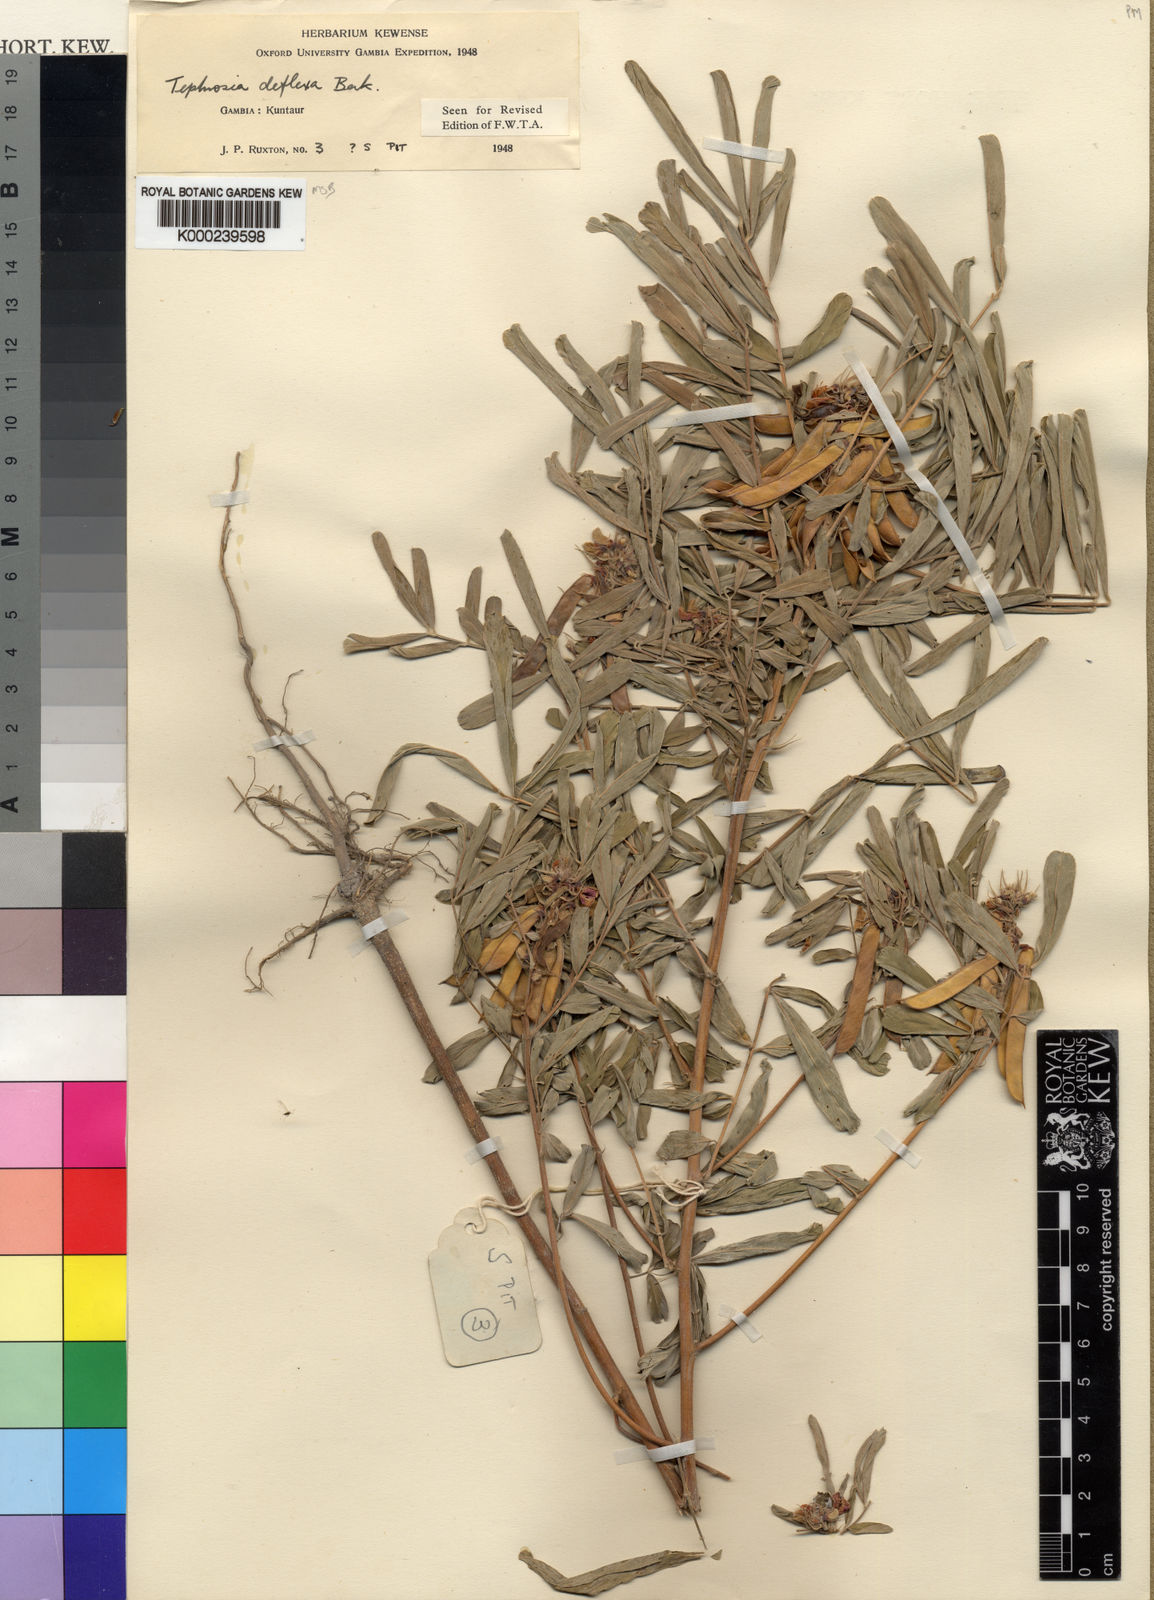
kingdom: Plantae
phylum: Tracheophyta
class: Magnoliopsida
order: Fabales
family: Fabaceae
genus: Tephrosia
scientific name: Tephrosia deflexa
